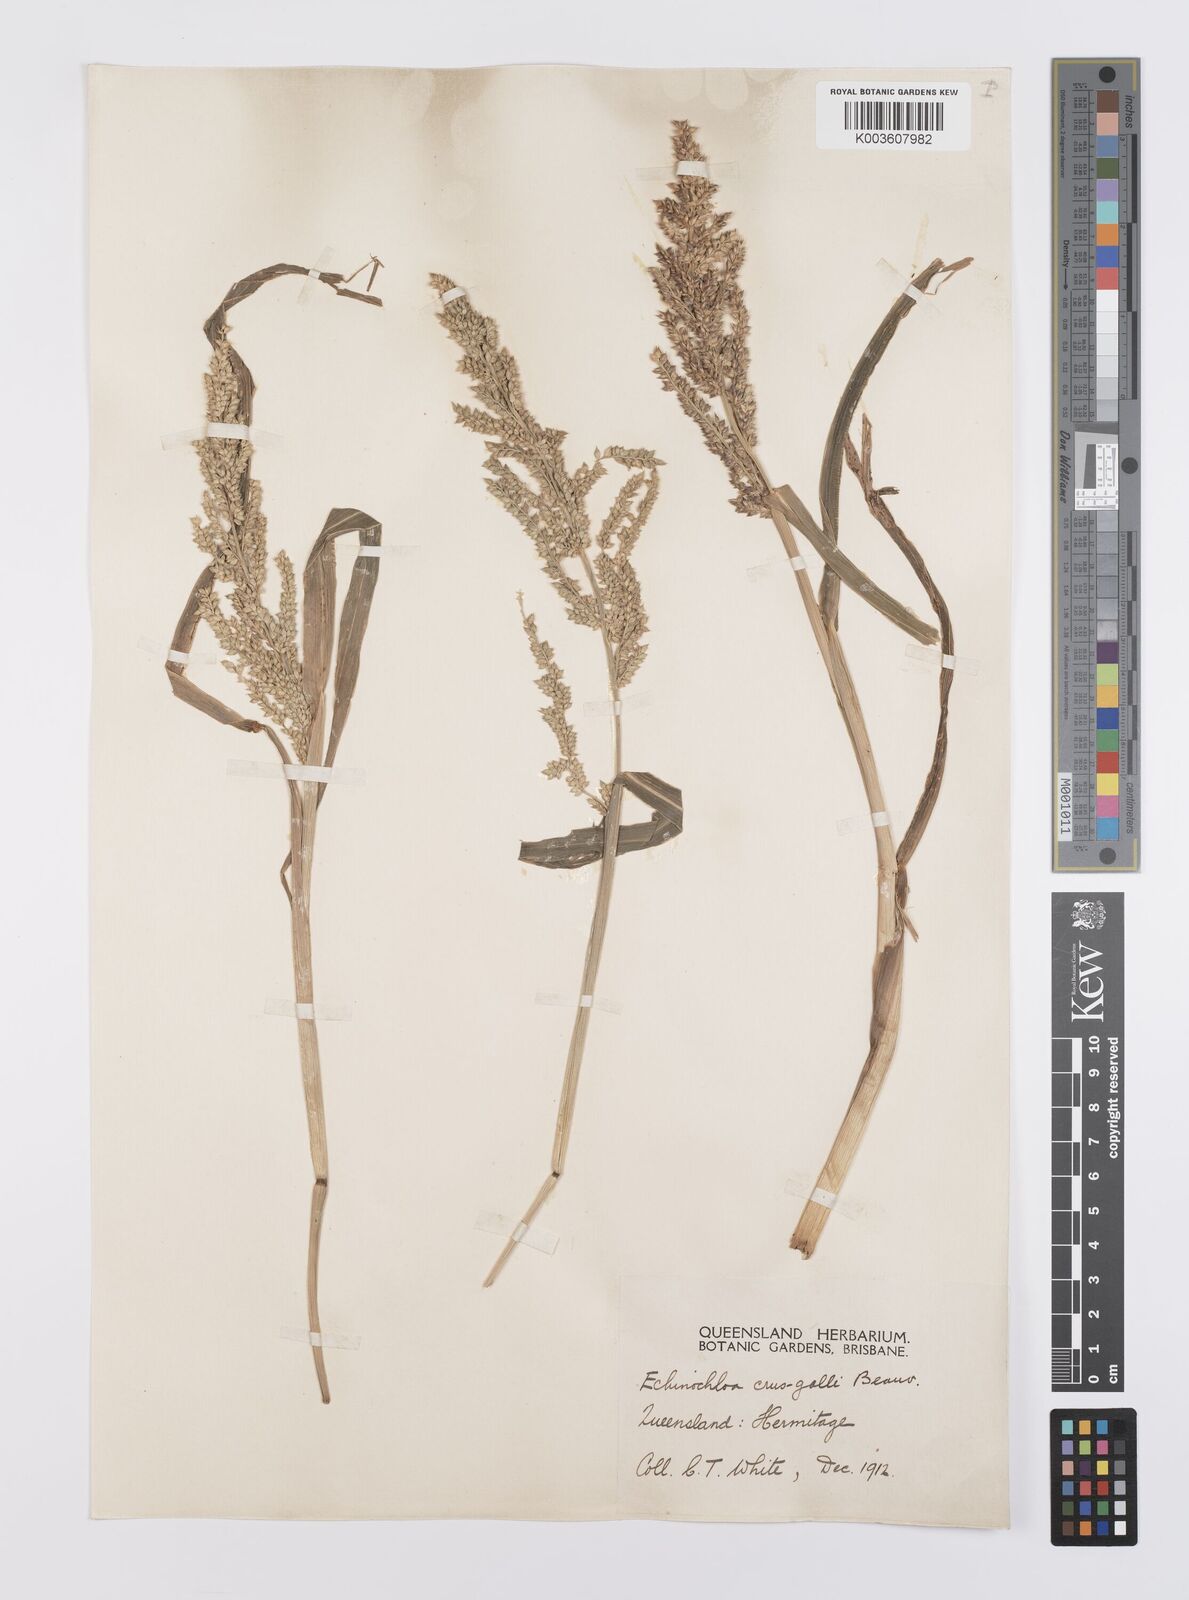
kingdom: Plantae
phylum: Tracheophyta
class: Liliopsida
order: Poales
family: Poaceae
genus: Echinochloa
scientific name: Echinochloa crus-galli
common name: Cockspur
